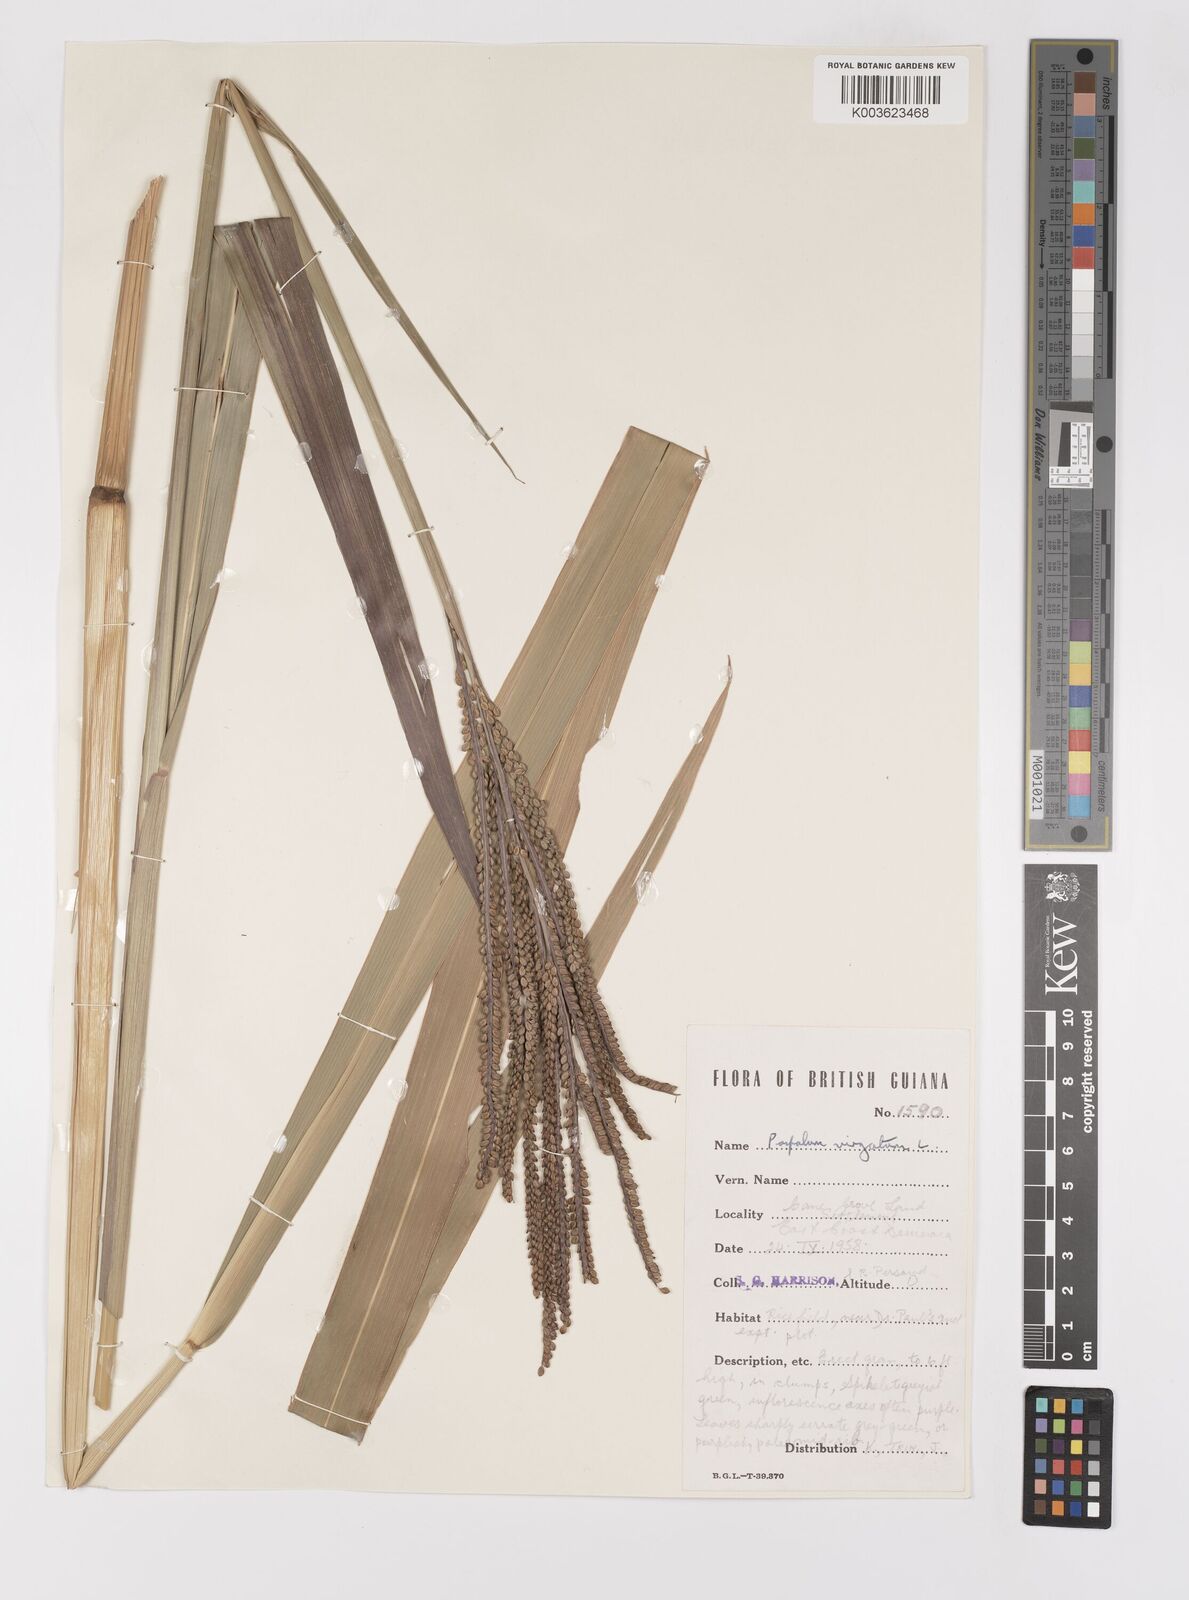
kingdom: Plantae
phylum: Tracheophyta
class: Liliopsida
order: Poales
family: Poaceae
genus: Paspalum
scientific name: Paspalum virgatum
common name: Talquezal
